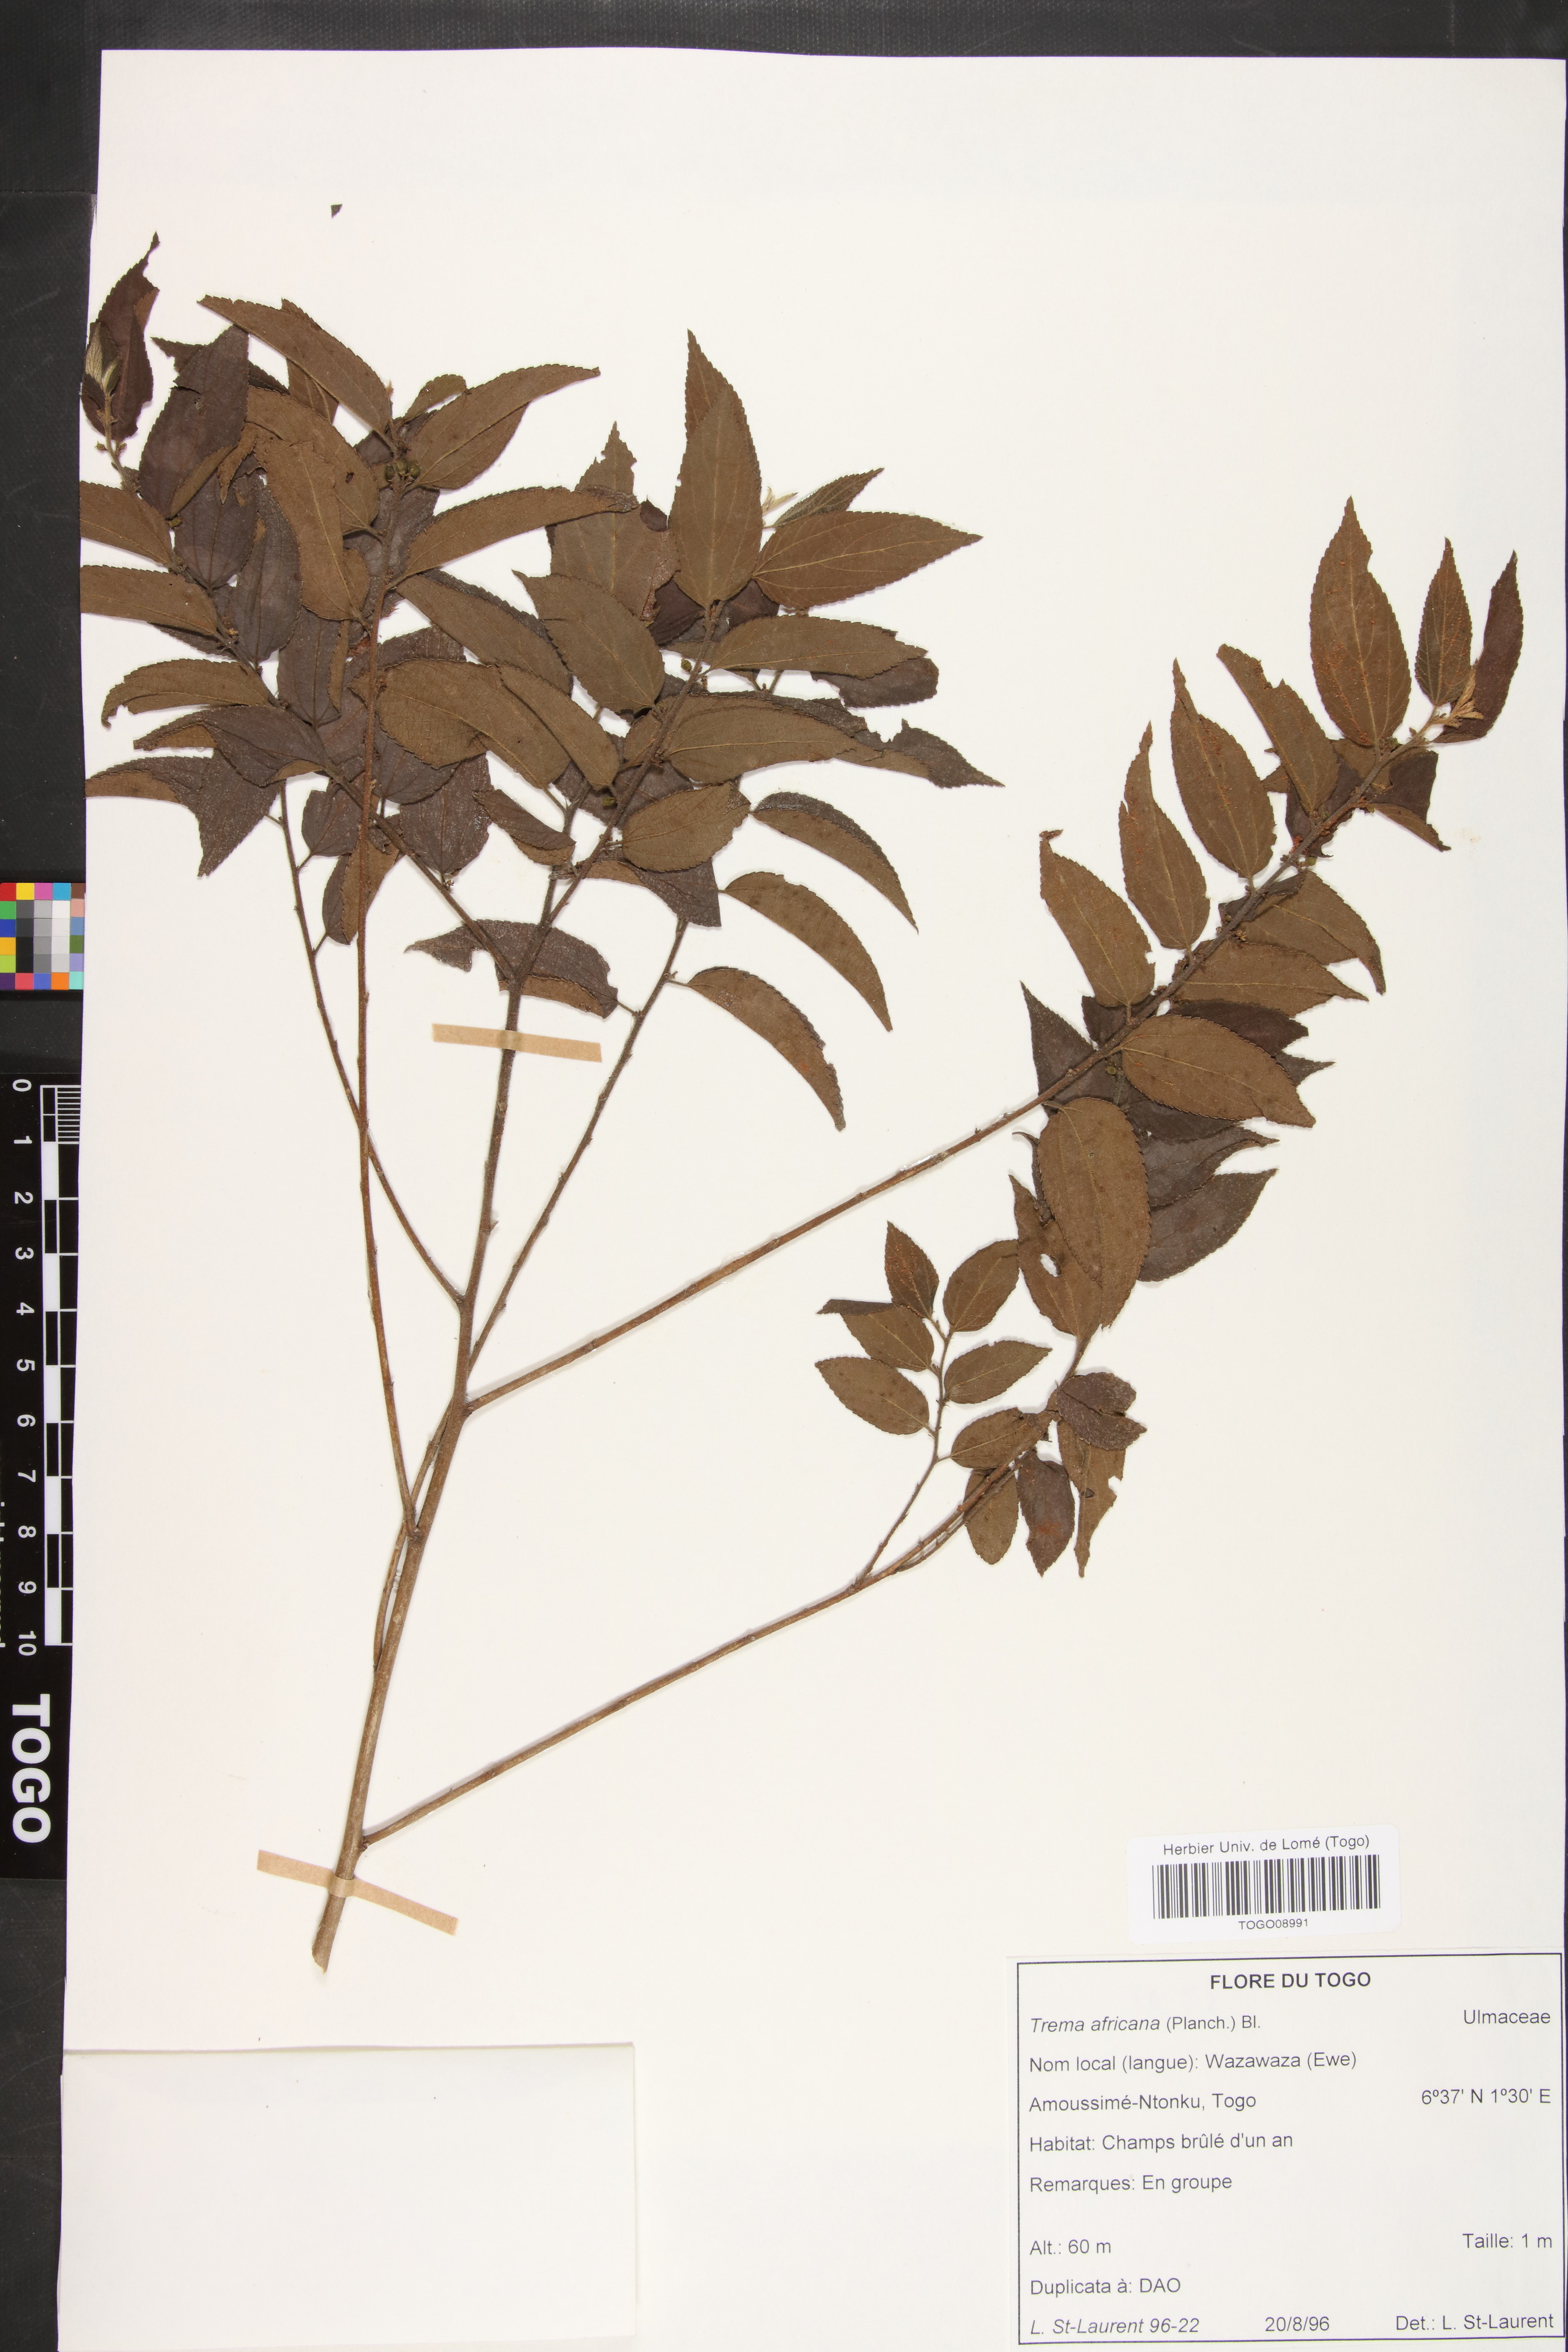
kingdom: Plantae
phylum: Tracheophyta
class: Magnoliopsida
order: Rosales
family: Cannabaceae
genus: Trema
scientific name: Trema orientale
